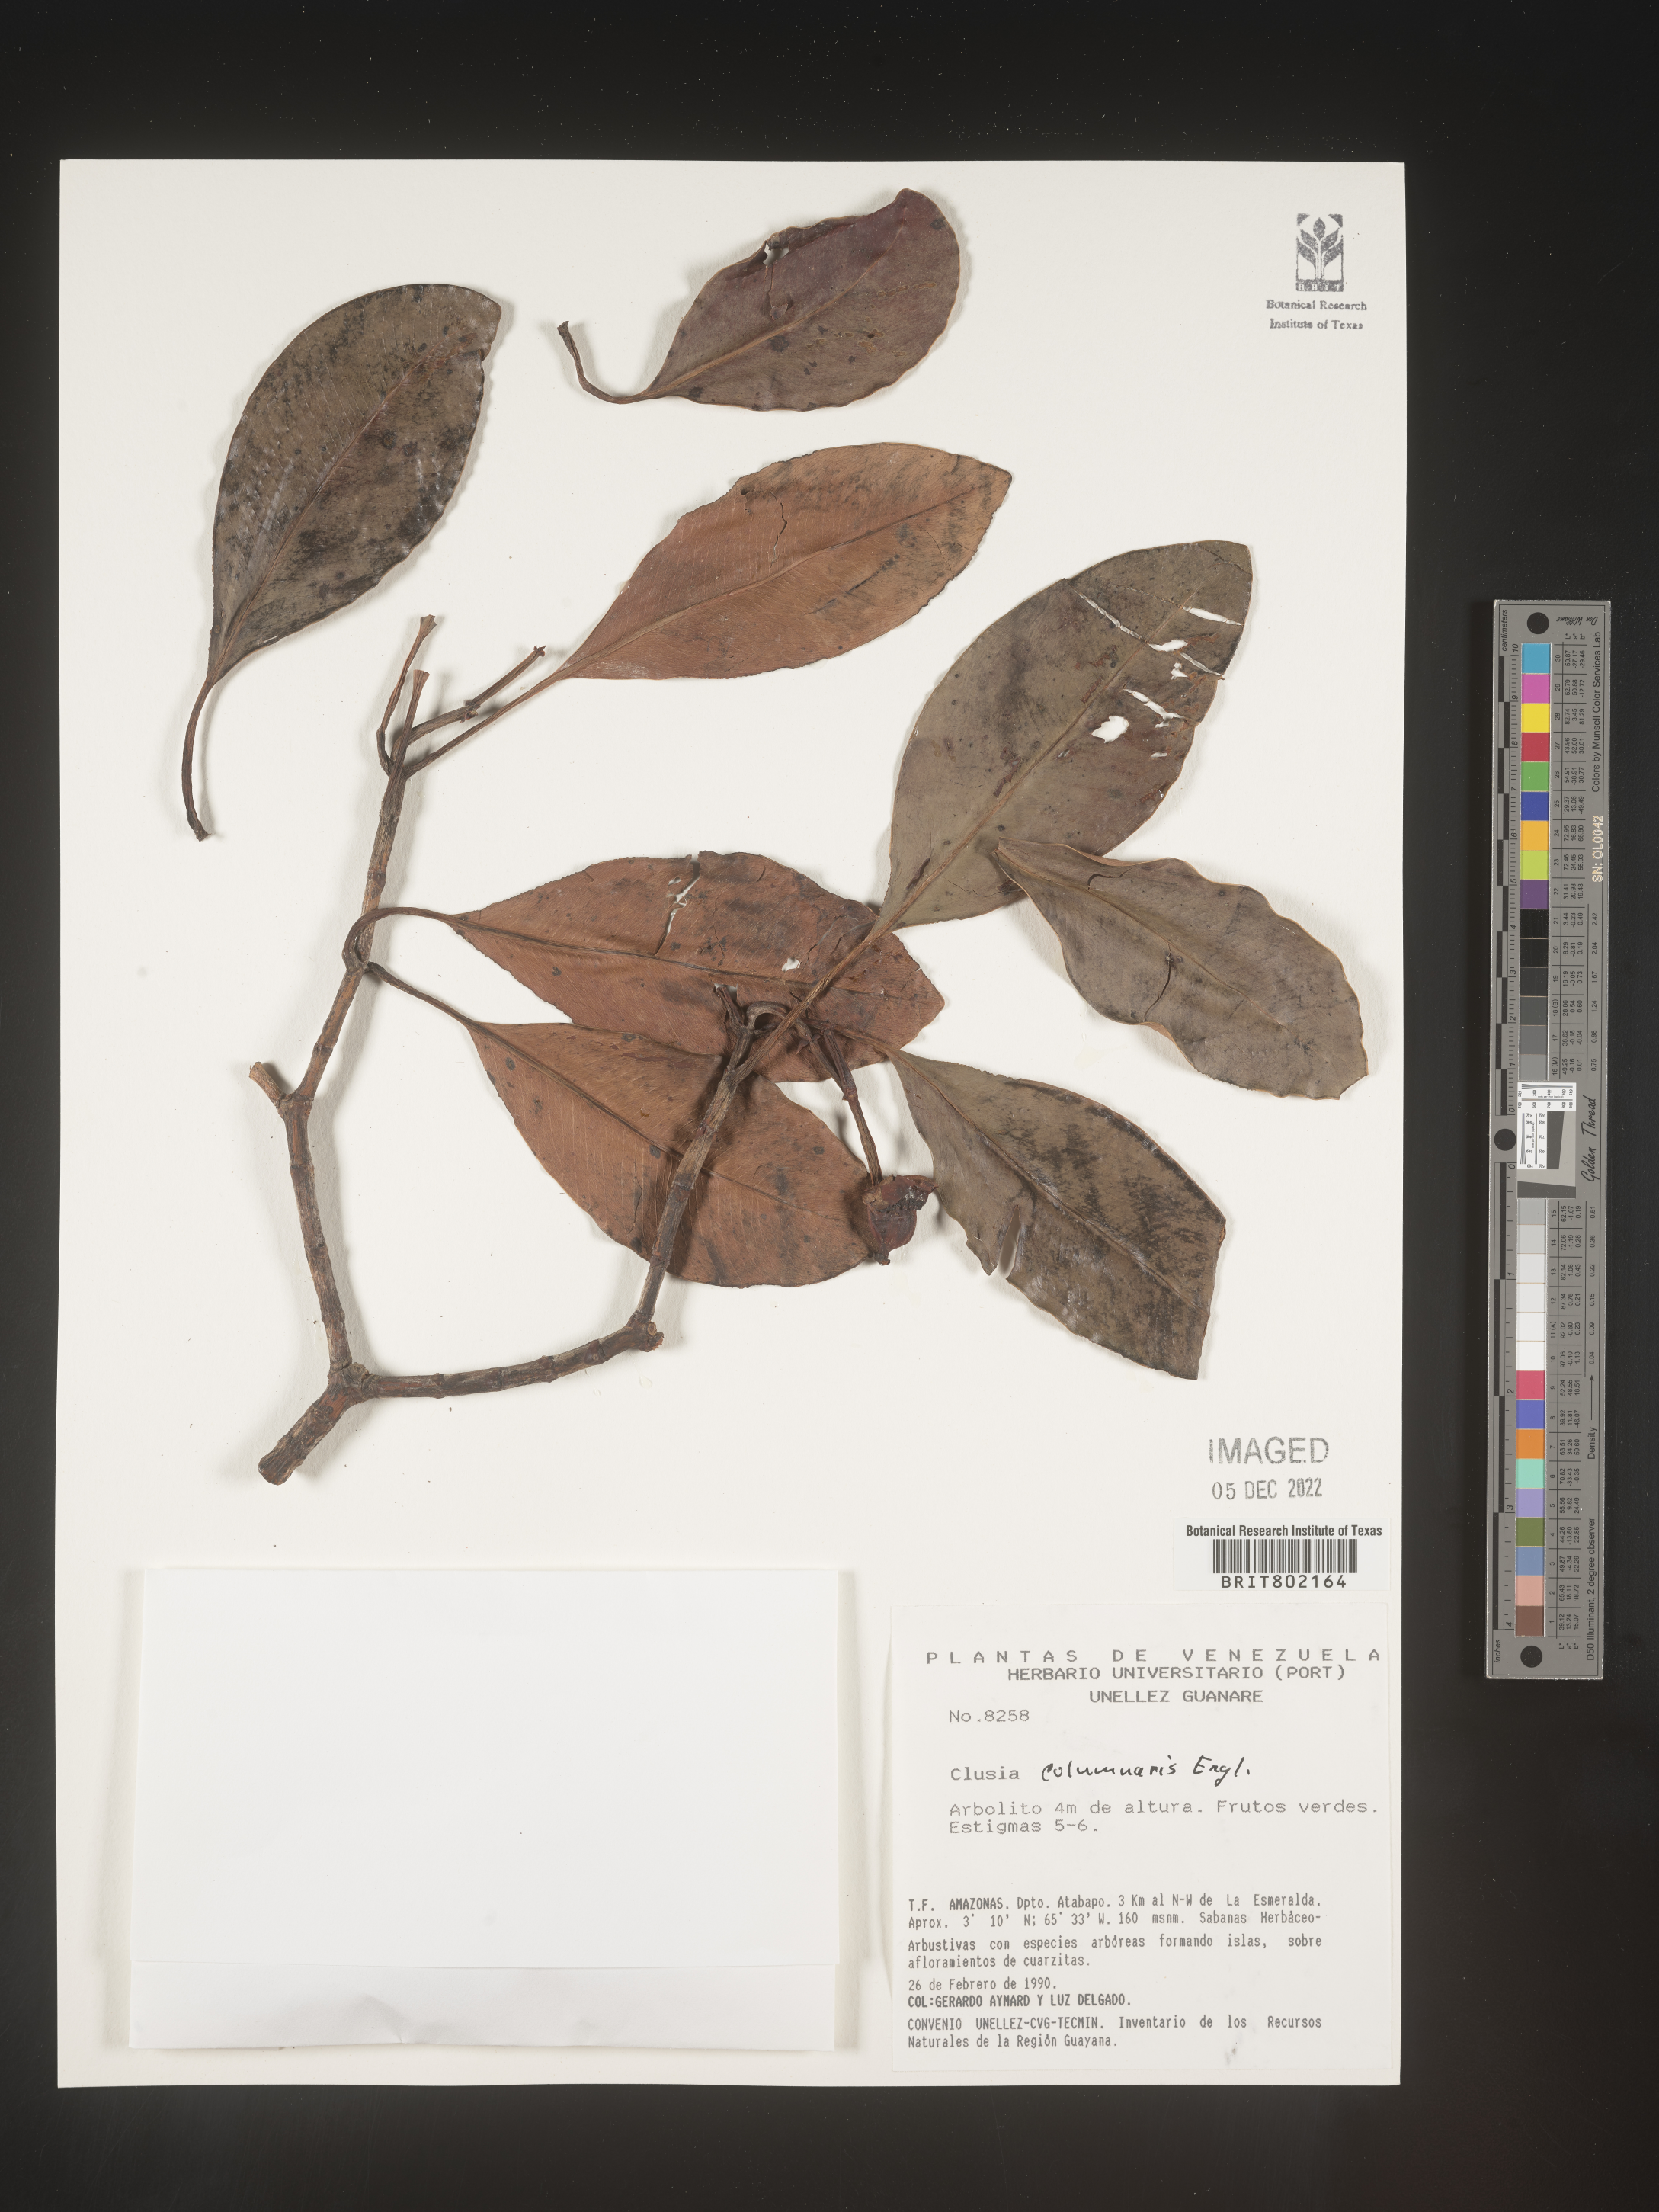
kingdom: Plantae
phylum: Tracheophyta
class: Magnoliopsida
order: Malpighiales
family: Clusiaceae
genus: Clusia
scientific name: Clusia columnaris
